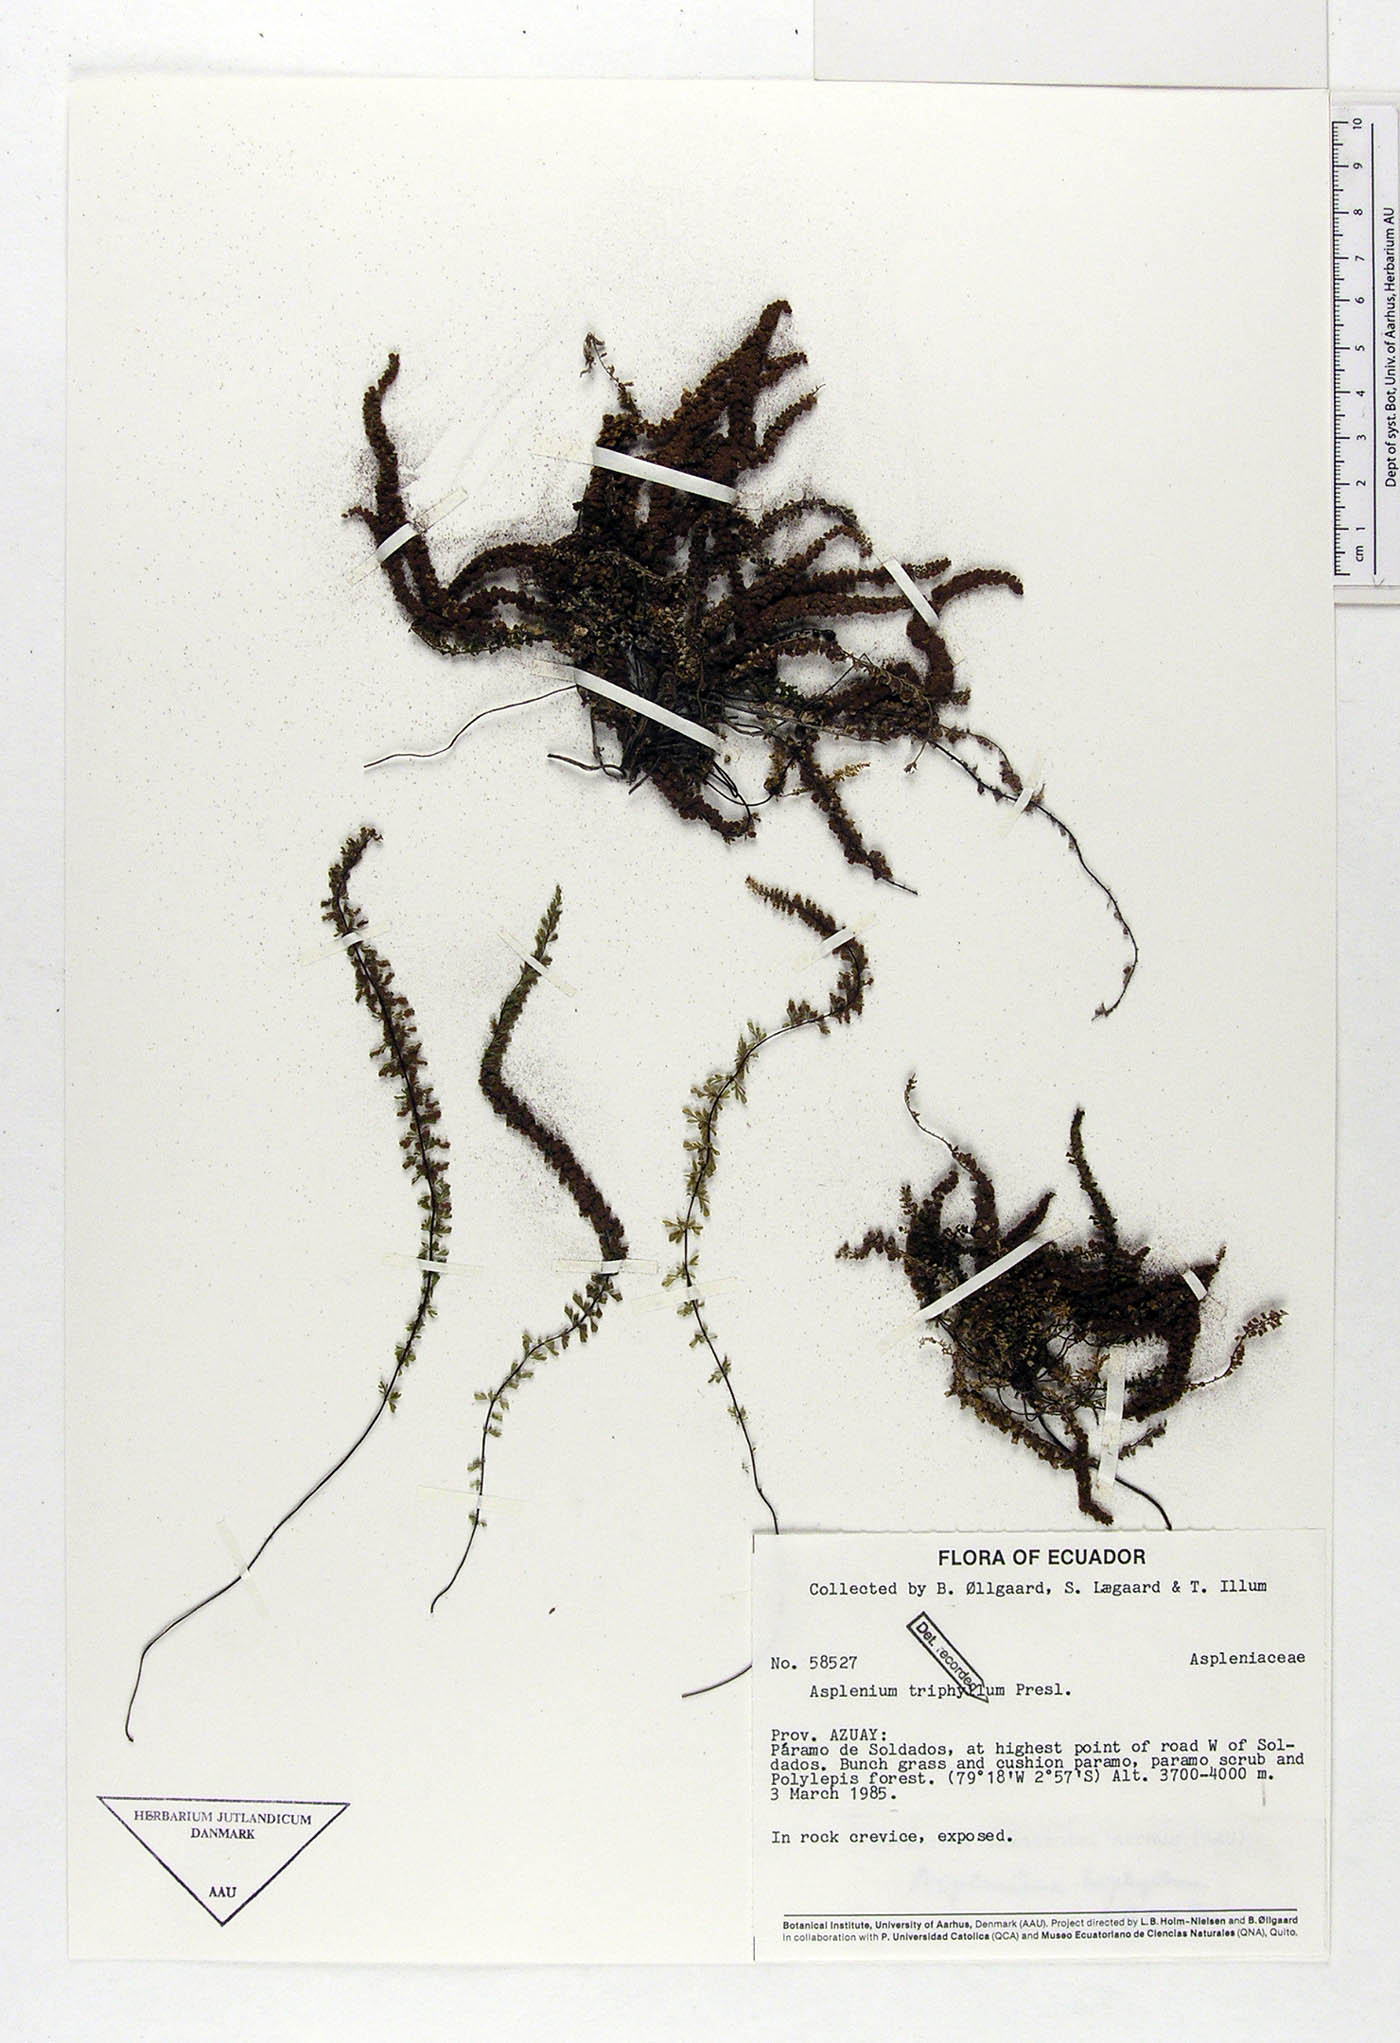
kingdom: Plantae
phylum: Tracheophyta
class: Polypodiopsida
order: Polypodiales
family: Aspleniaceae
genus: Asplenium
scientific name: Asplenium triphyllum
